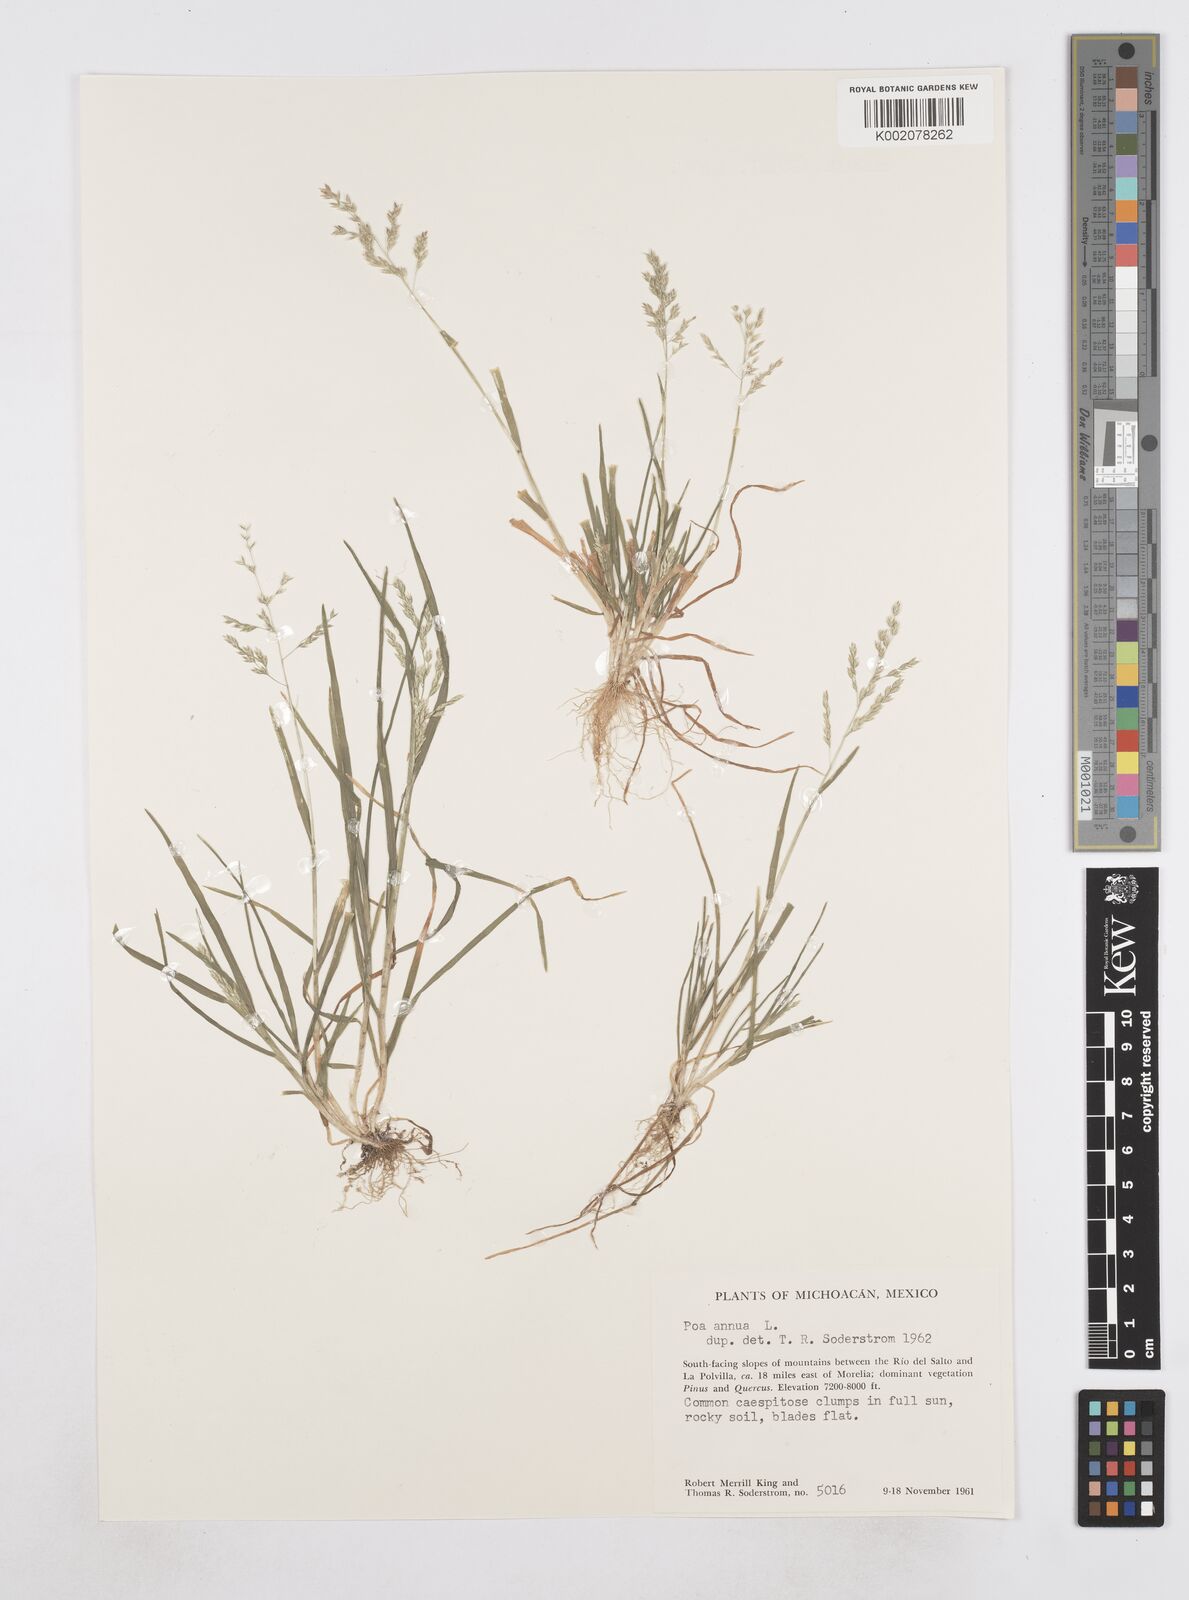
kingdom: Plantae
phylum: Tracheophyta
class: Liliopsida
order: Poales
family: Poaceae
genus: Poa
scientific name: Poa annua
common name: Annual bluegrass
